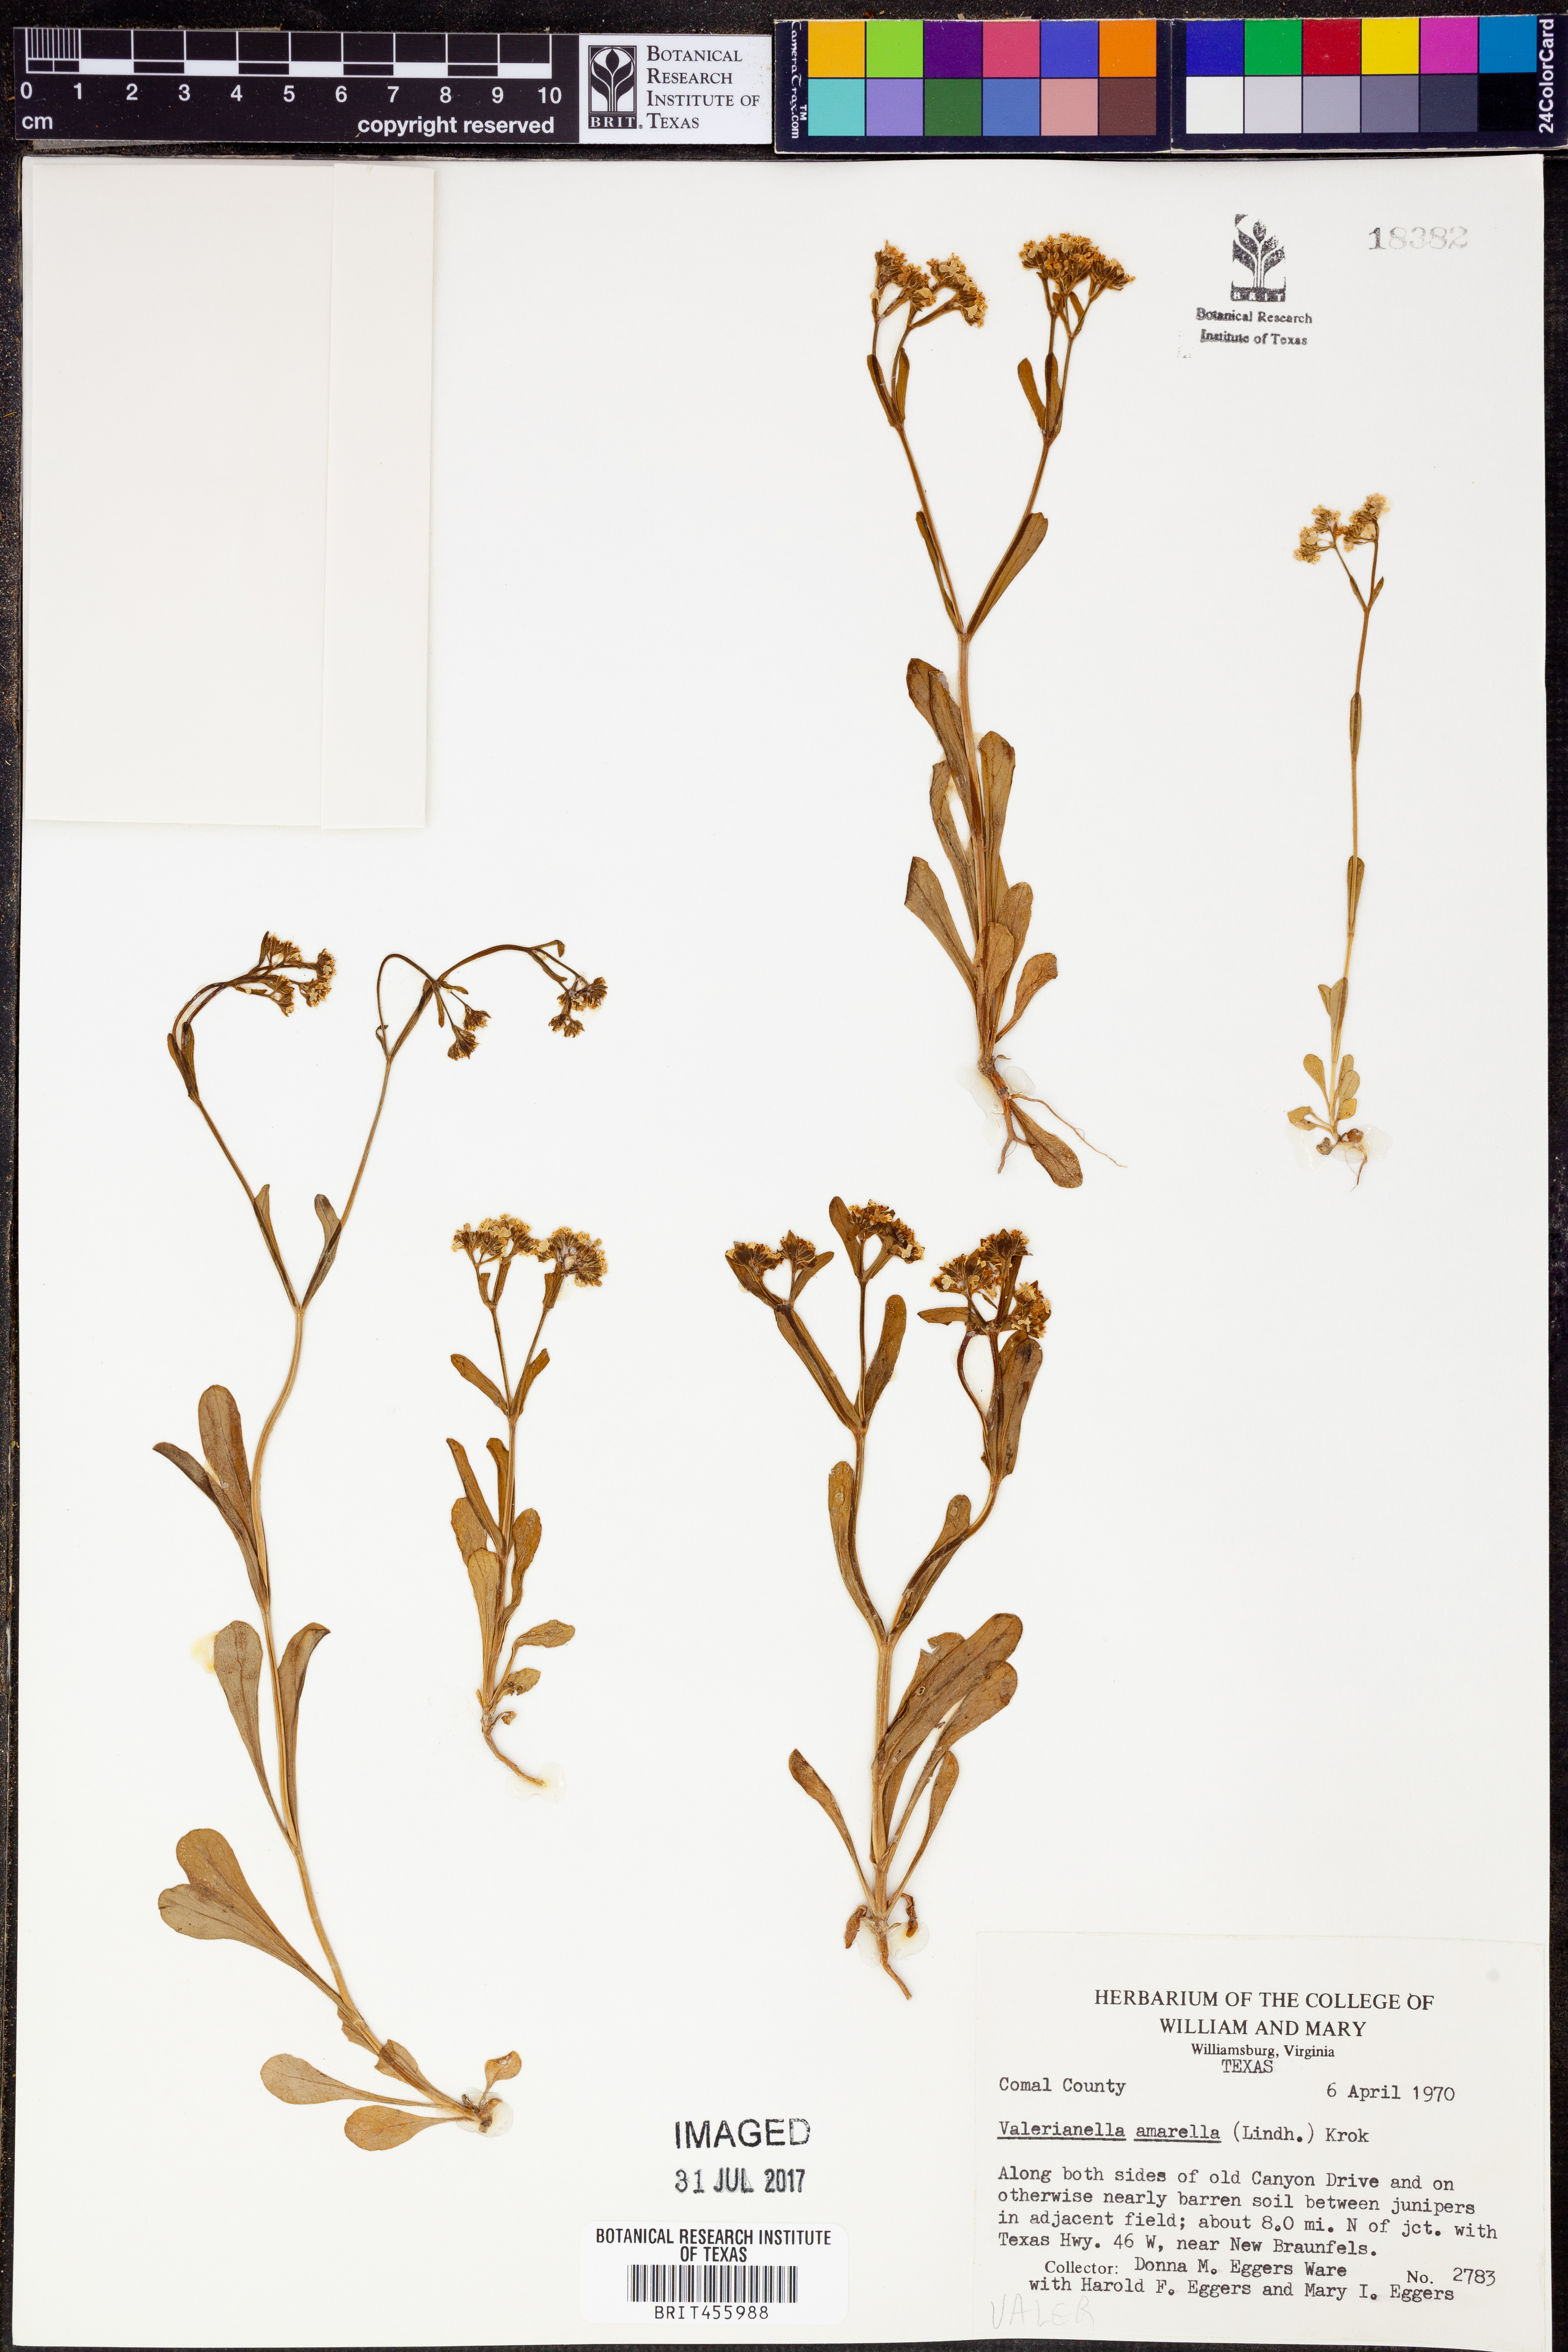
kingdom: Plantae
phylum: Tracheophyta
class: Magnoliopsida
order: Dipsacales
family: Caprifoliaceae
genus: Valerianella
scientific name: Valerianella amarella
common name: Hariy cornsalad
